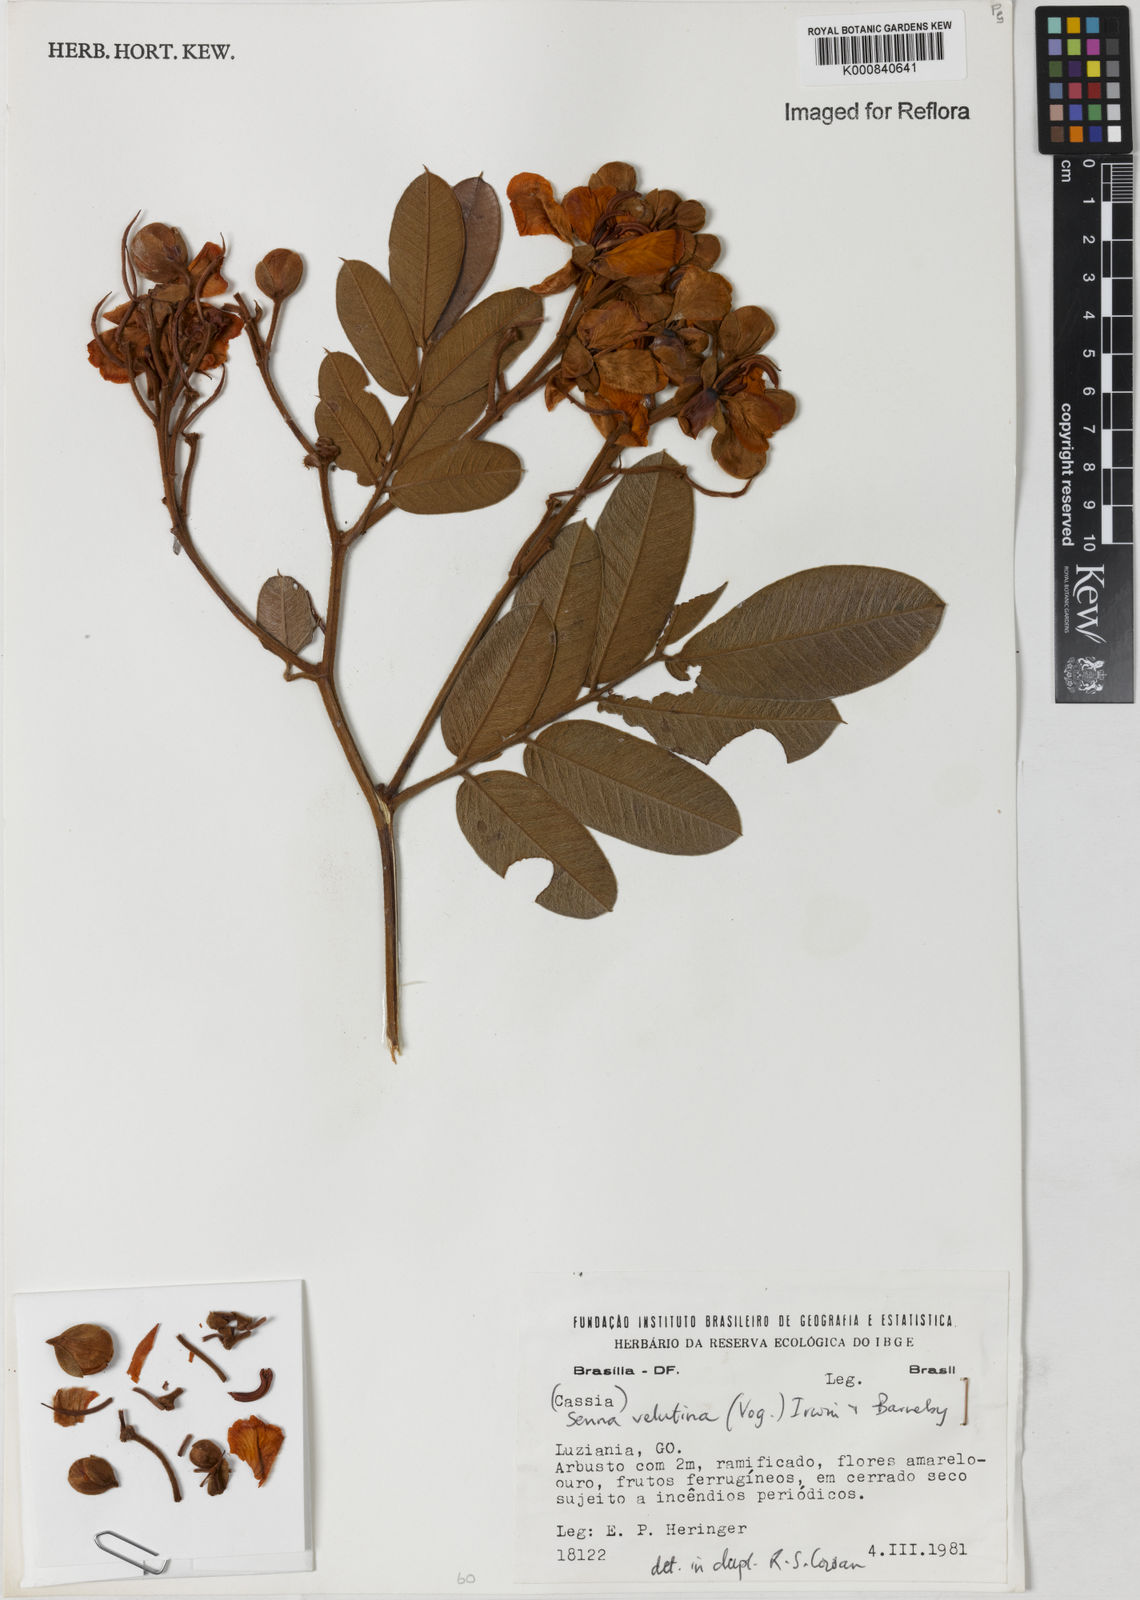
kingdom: Plantae
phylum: Tracheophyta
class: Magnoliopsida
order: Fabales
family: Fabaceae
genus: Senna
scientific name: Senna velutina
